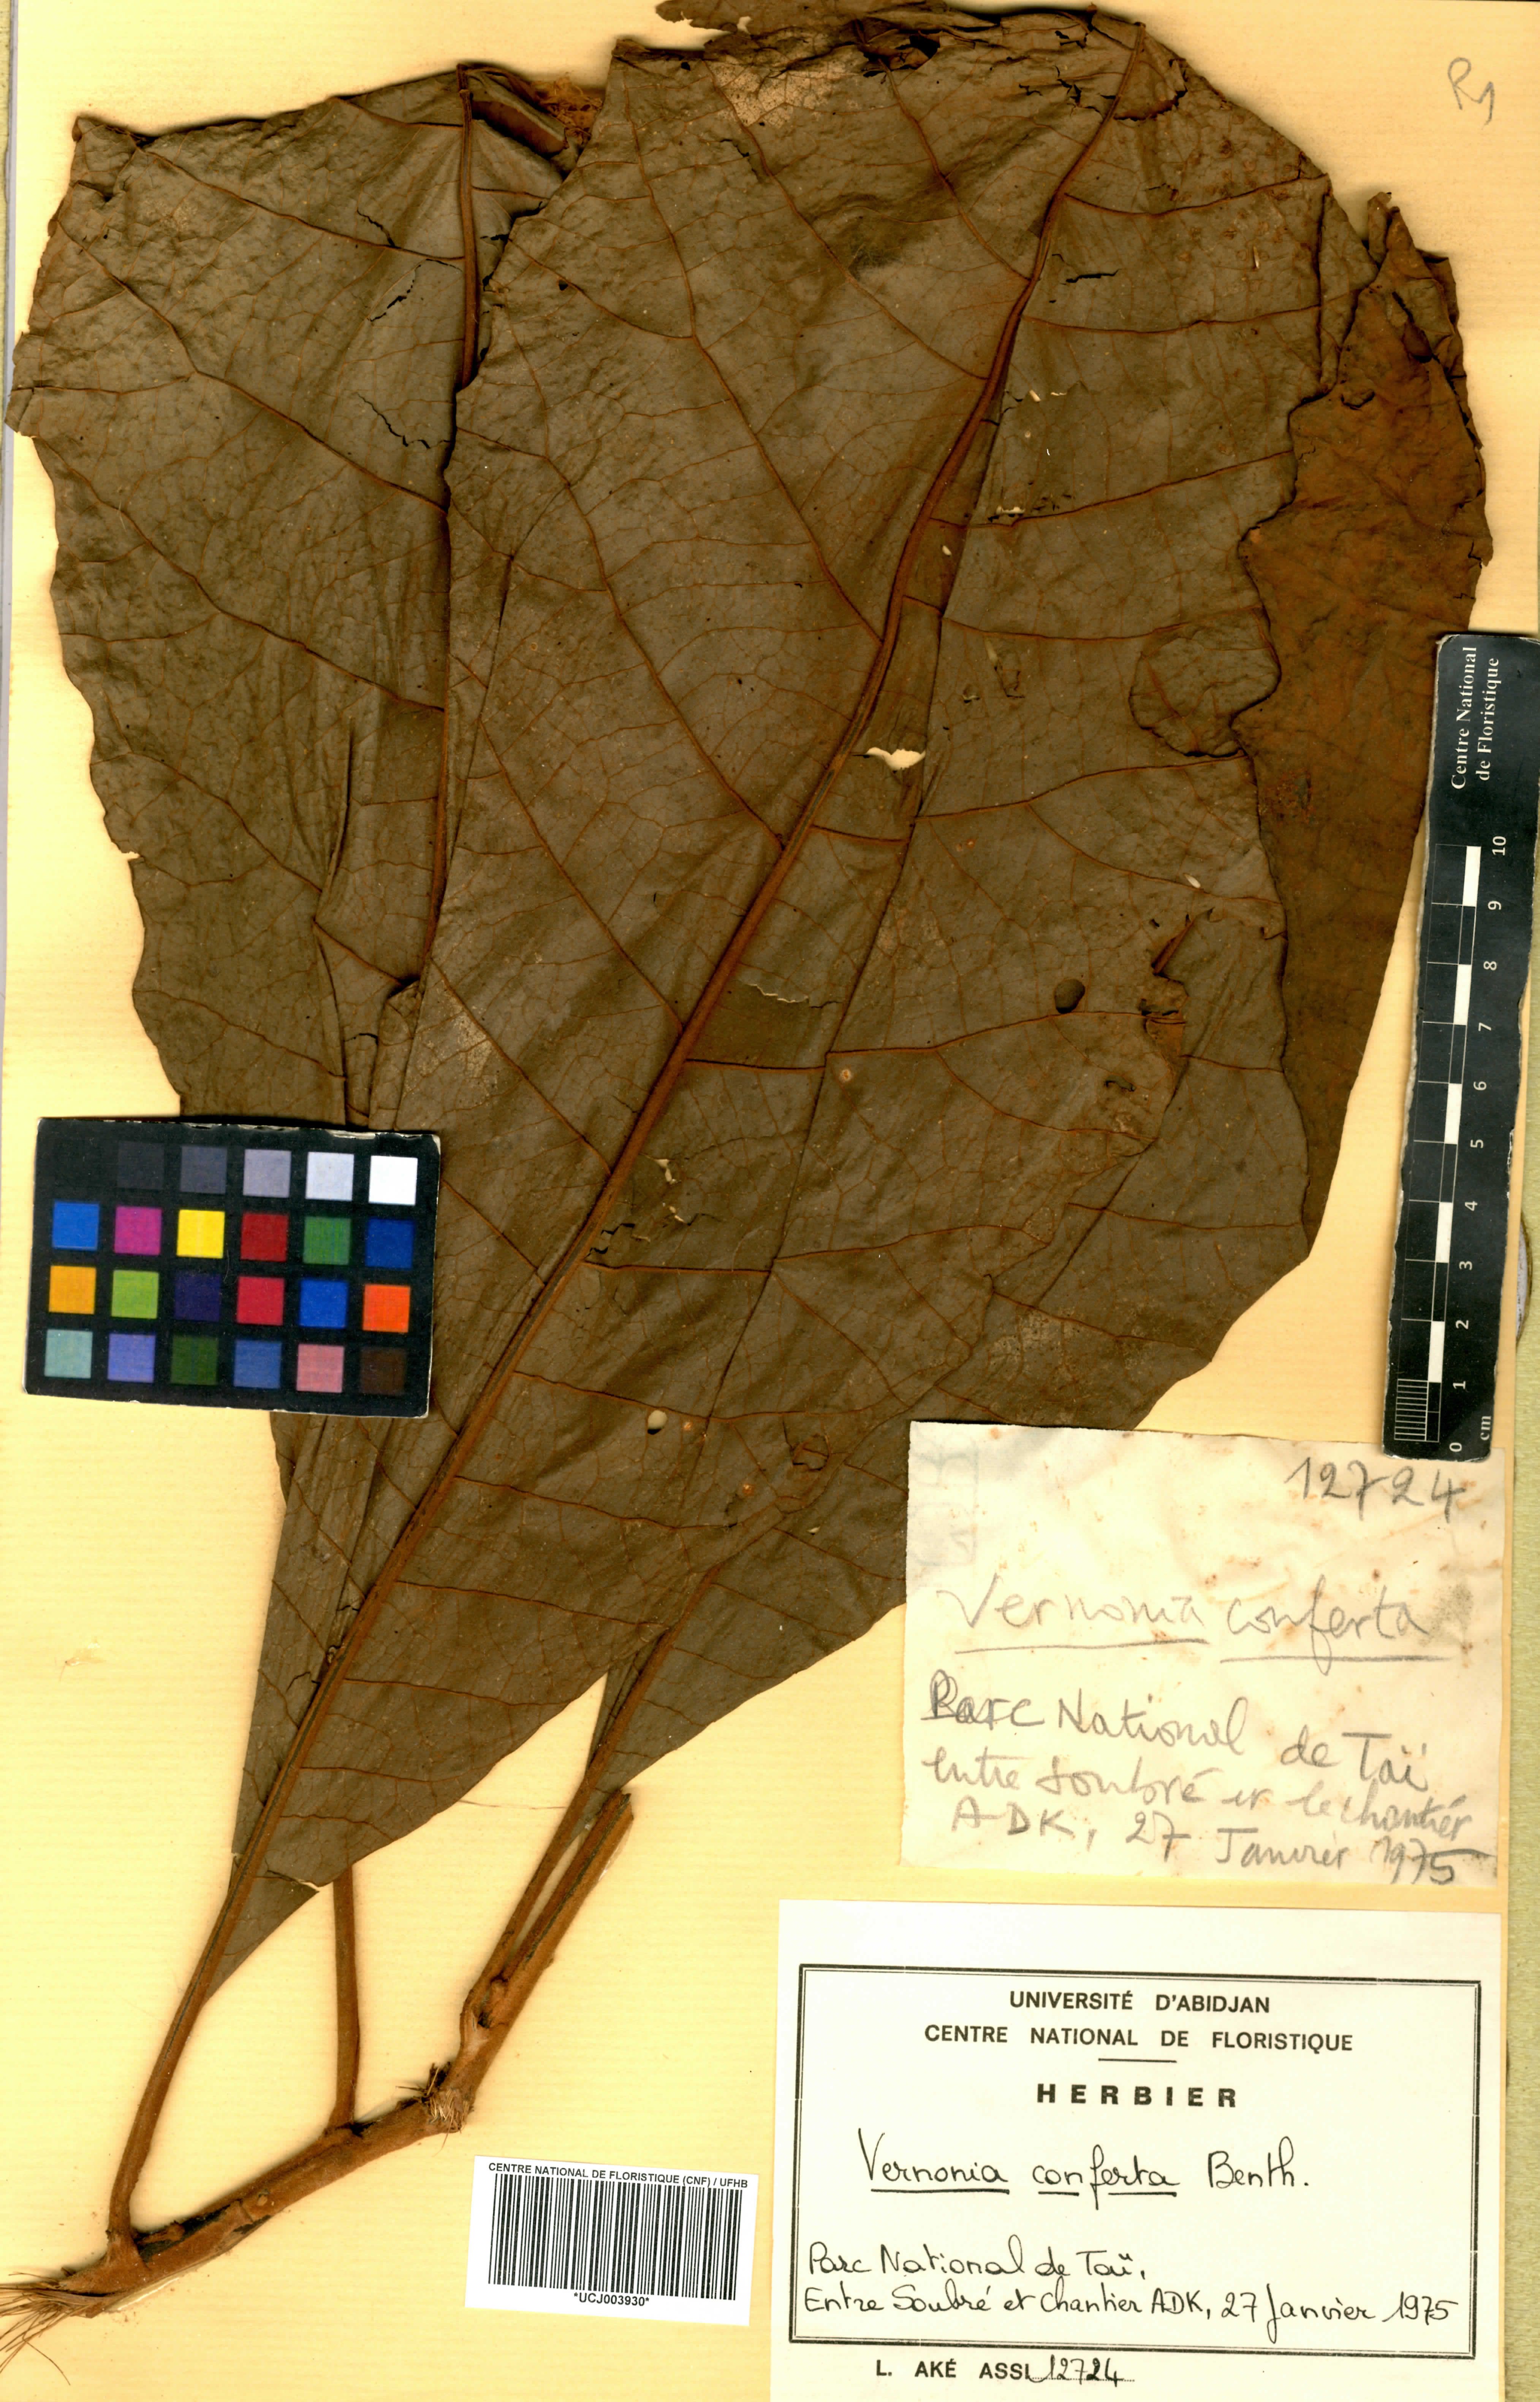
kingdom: Plantae
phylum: Tracheophyta
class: Magnoliopsida
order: Asterales
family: Asteraceae
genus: Monosis
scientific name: Monosis conferta
